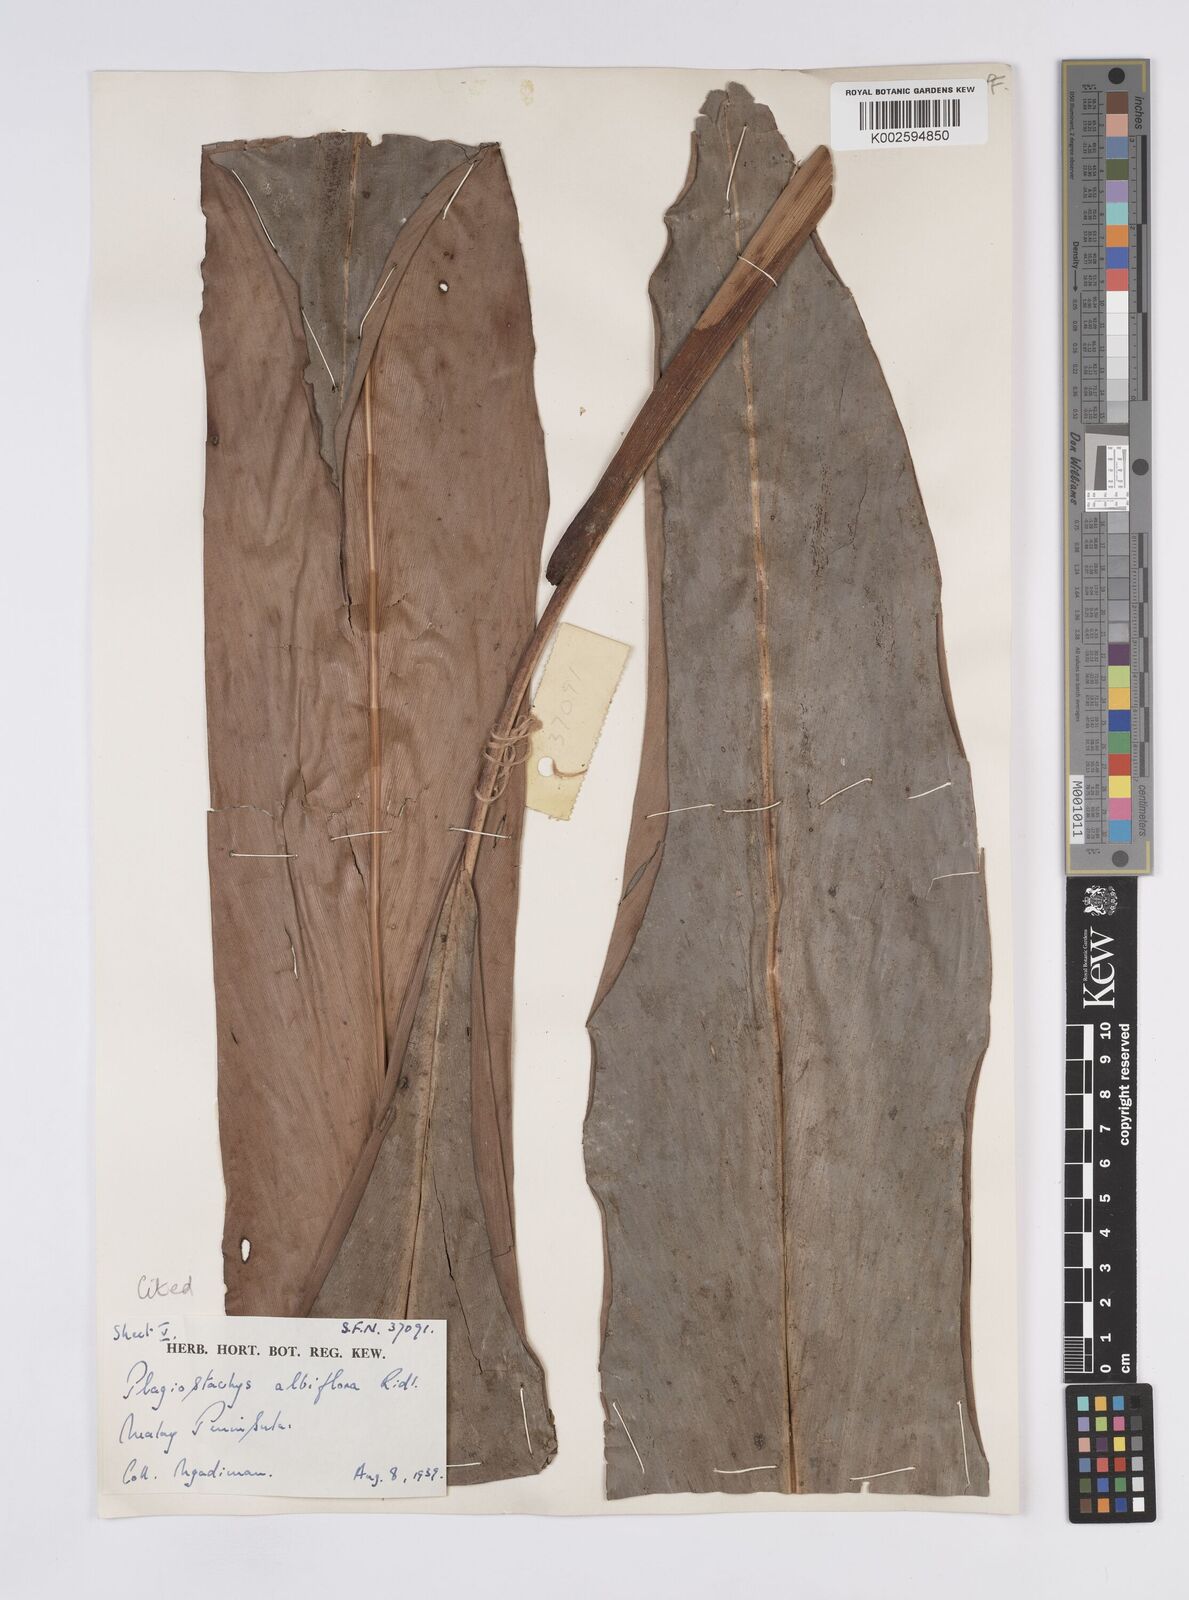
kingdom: Plantae
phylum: Tracheophyta
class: Liliopsida
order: Zingiberales
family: Zingiberaceae
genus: Plagiostachys
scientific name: Plagiostachys albiflora
